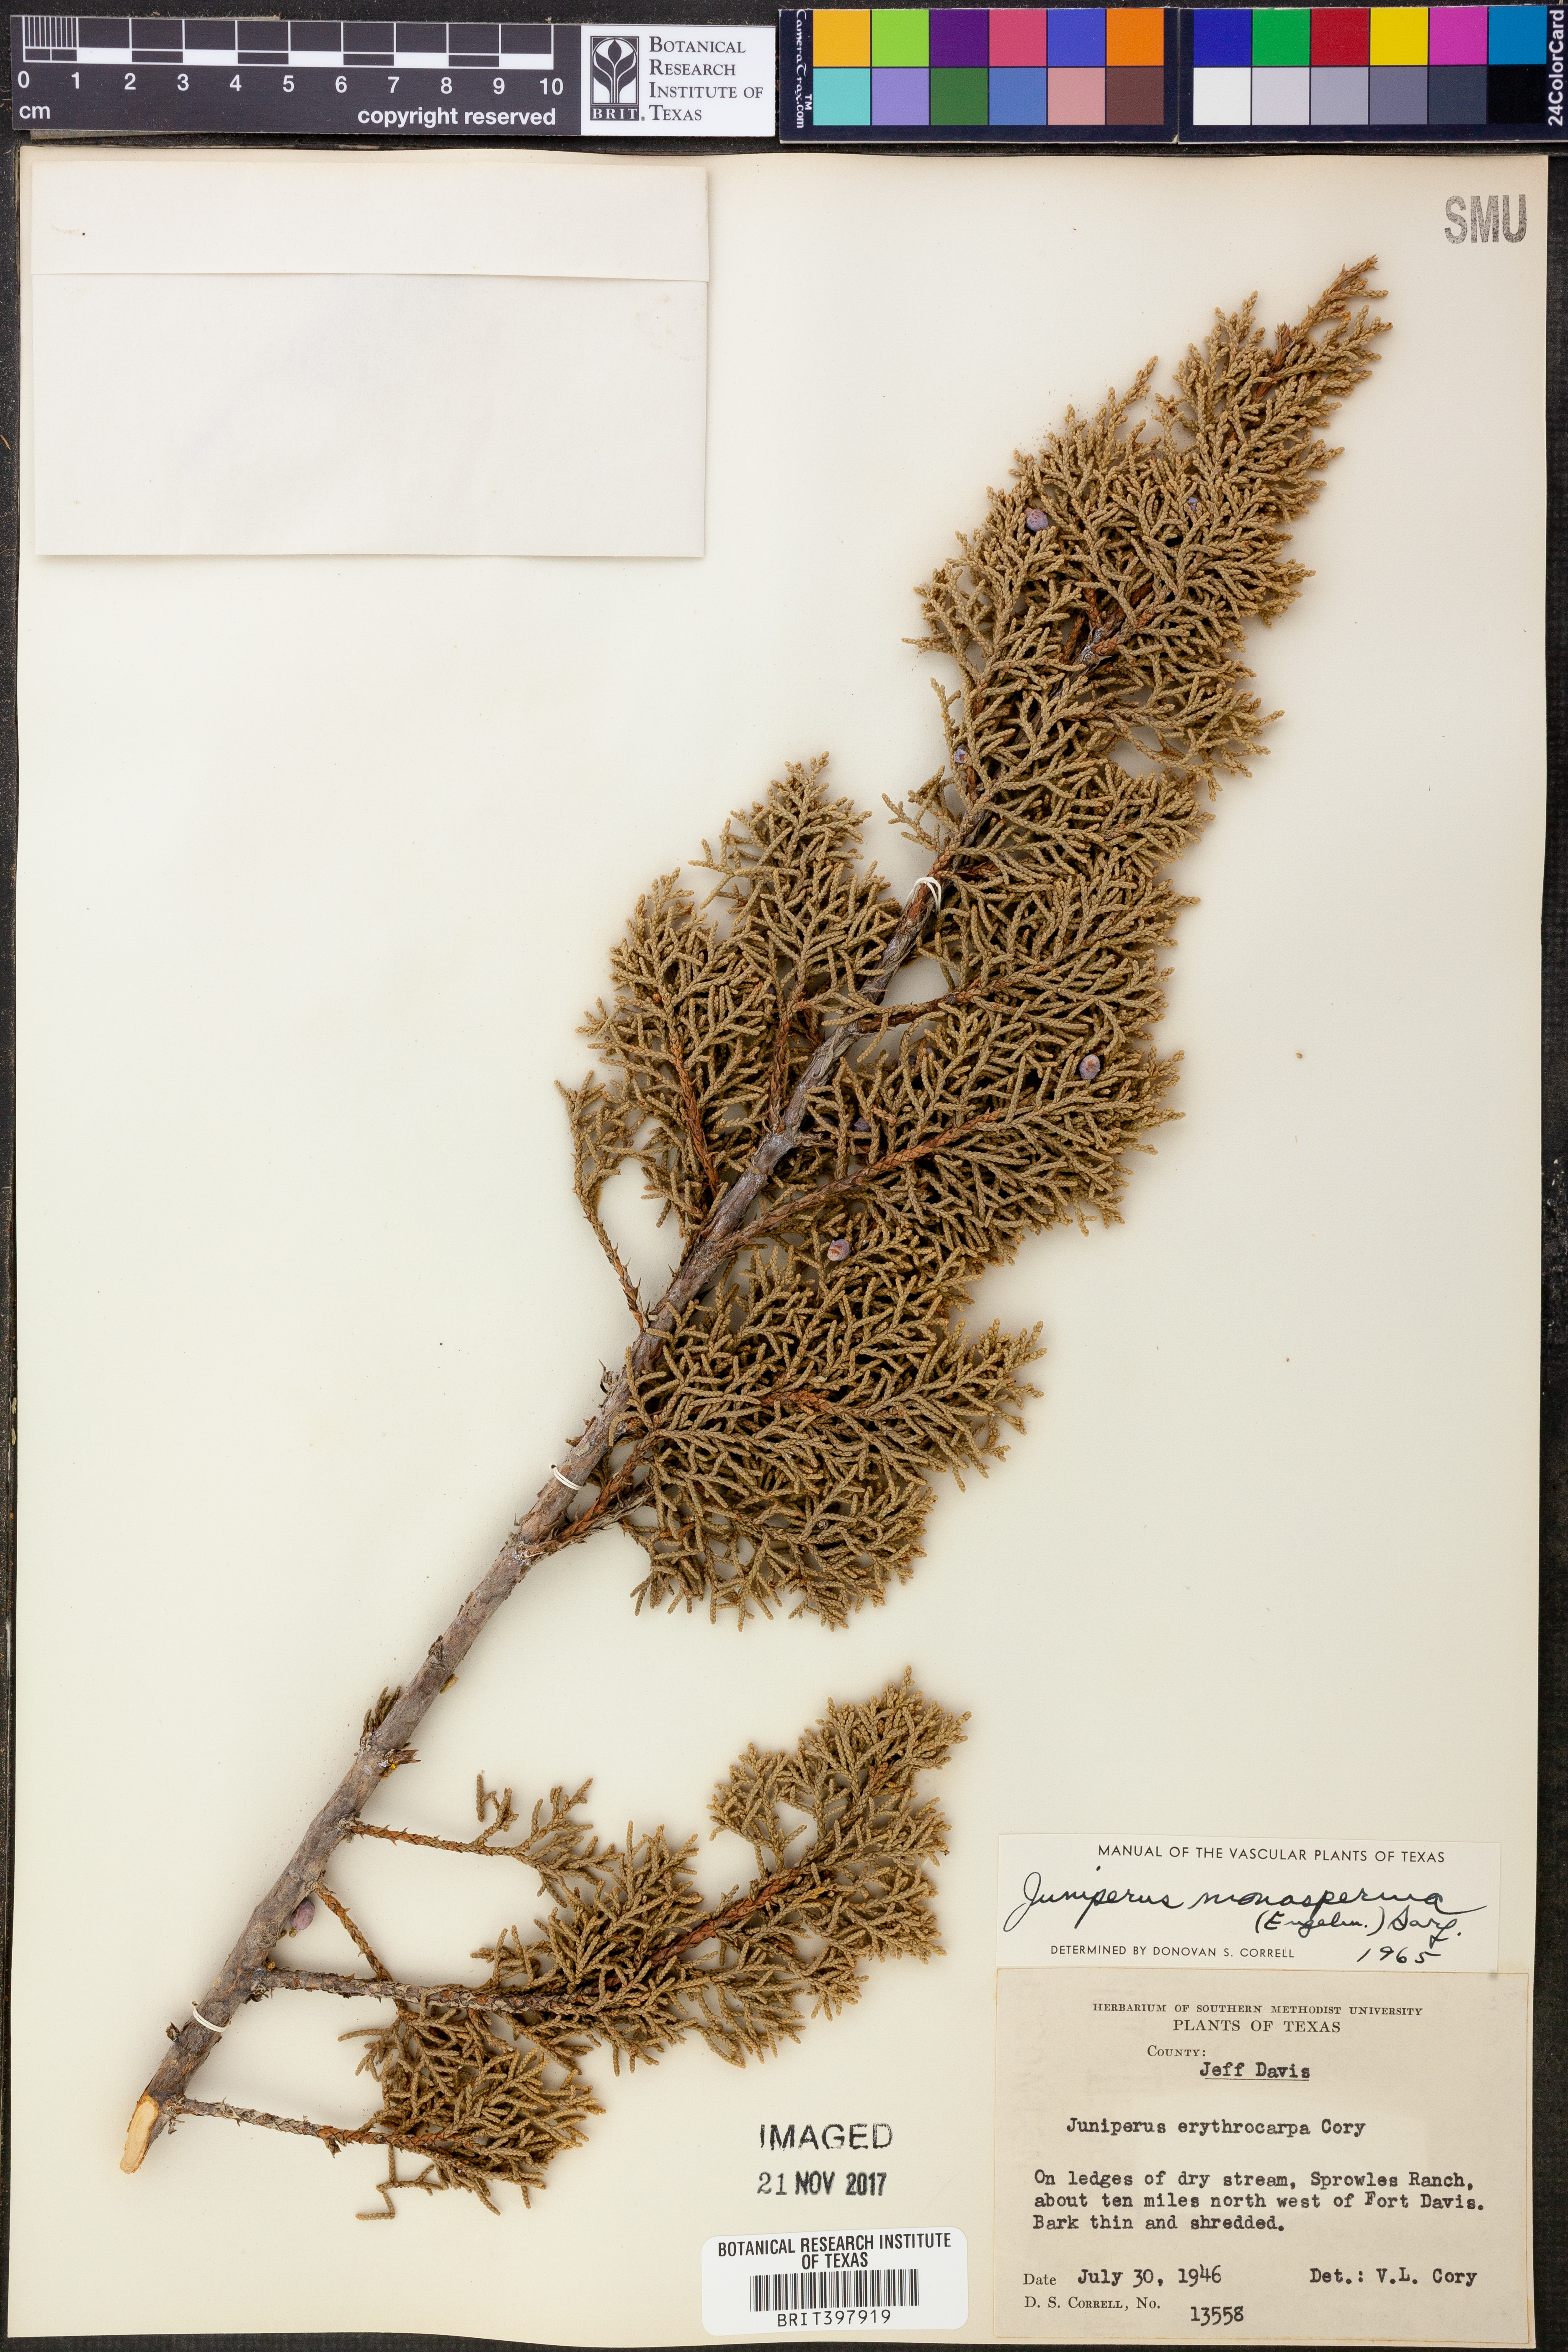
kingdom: Plantae
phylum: Tracheophyta
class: Pinopsida
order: Pinales
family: Cupressaceae
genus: Juniperus
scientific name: Juniperus pinchotii
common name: Pinchot juniper
